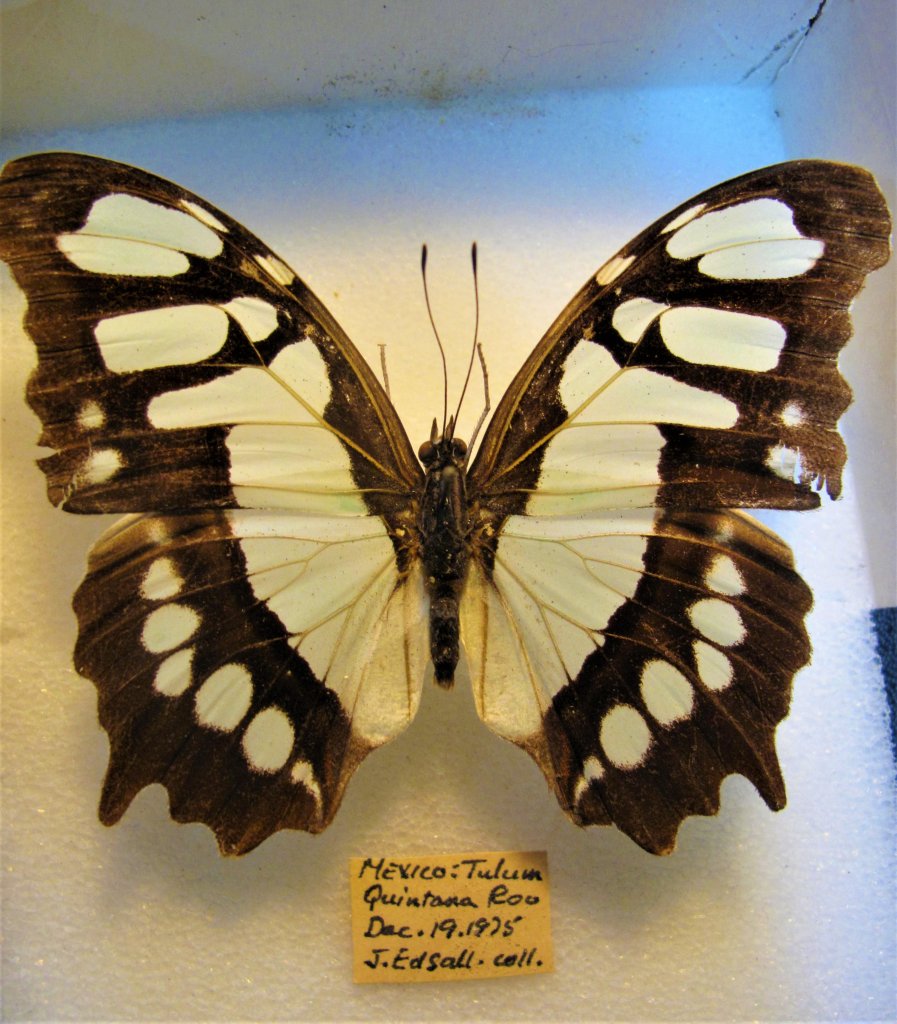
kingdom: Animalia
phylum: Arthropoda
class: Insecta
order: Lepidoptera
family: Nymphalidae
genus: Siproeta
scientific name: Siproeta stelenes
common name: Malachite
